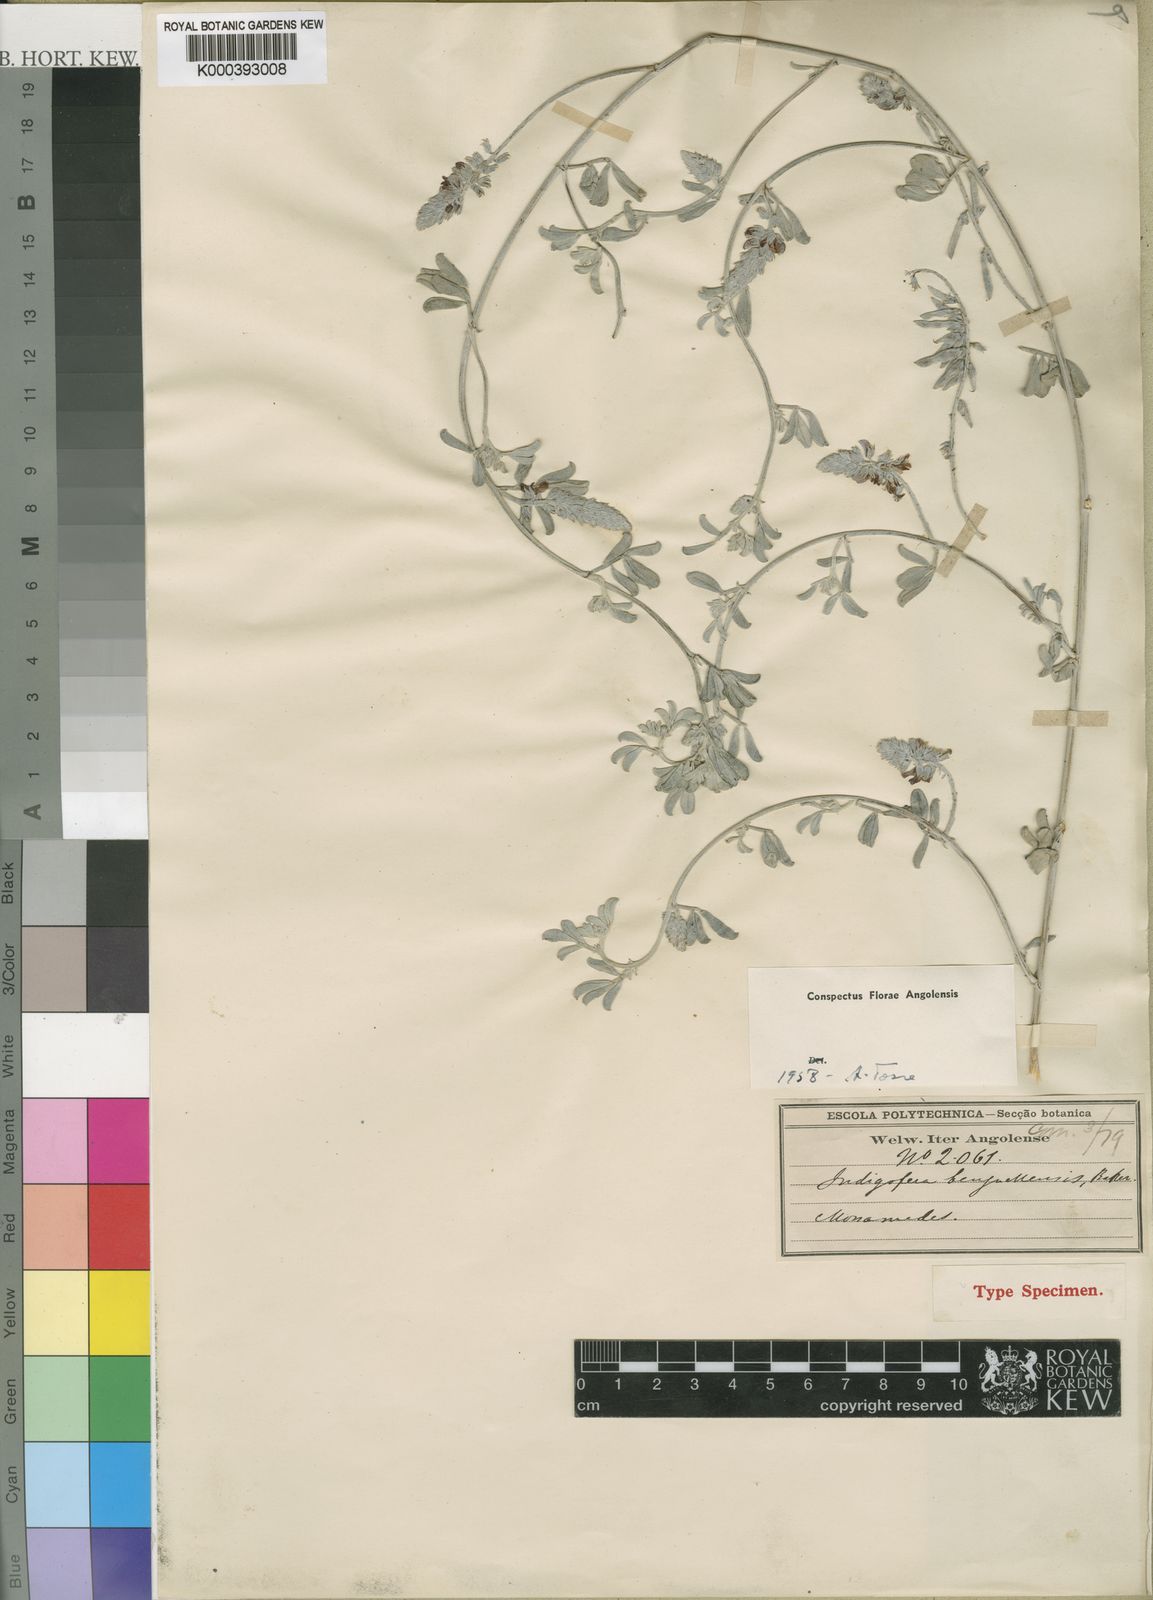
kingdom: Plantae
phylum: Tracheophyta
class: Magnoliopsida
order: Fabales
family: Fabaceae
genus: Indigofera
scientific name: Indigofera benguellensis
